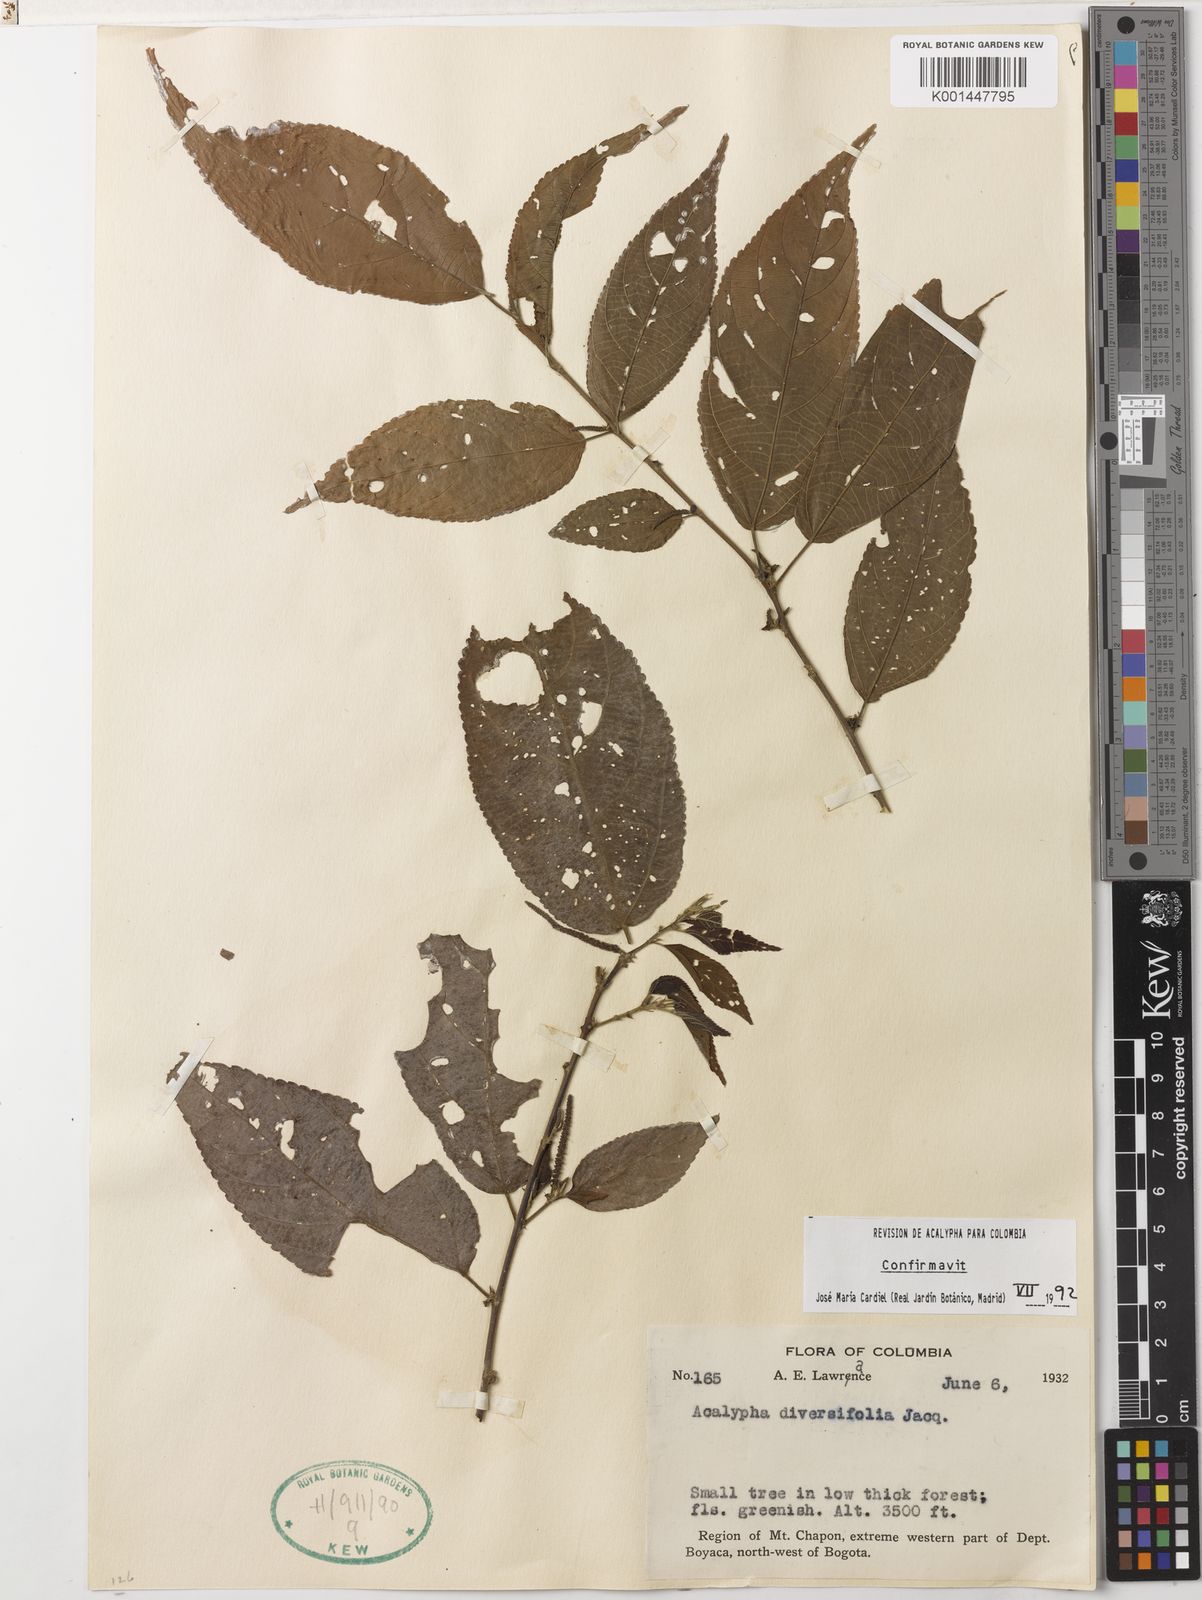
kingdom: Plantae
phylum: Tracheophyta
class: Magnoliopsida
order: Malpighiales
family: Euphorbiaceae
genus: Acalypha
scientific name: Acalypha diversifolia
